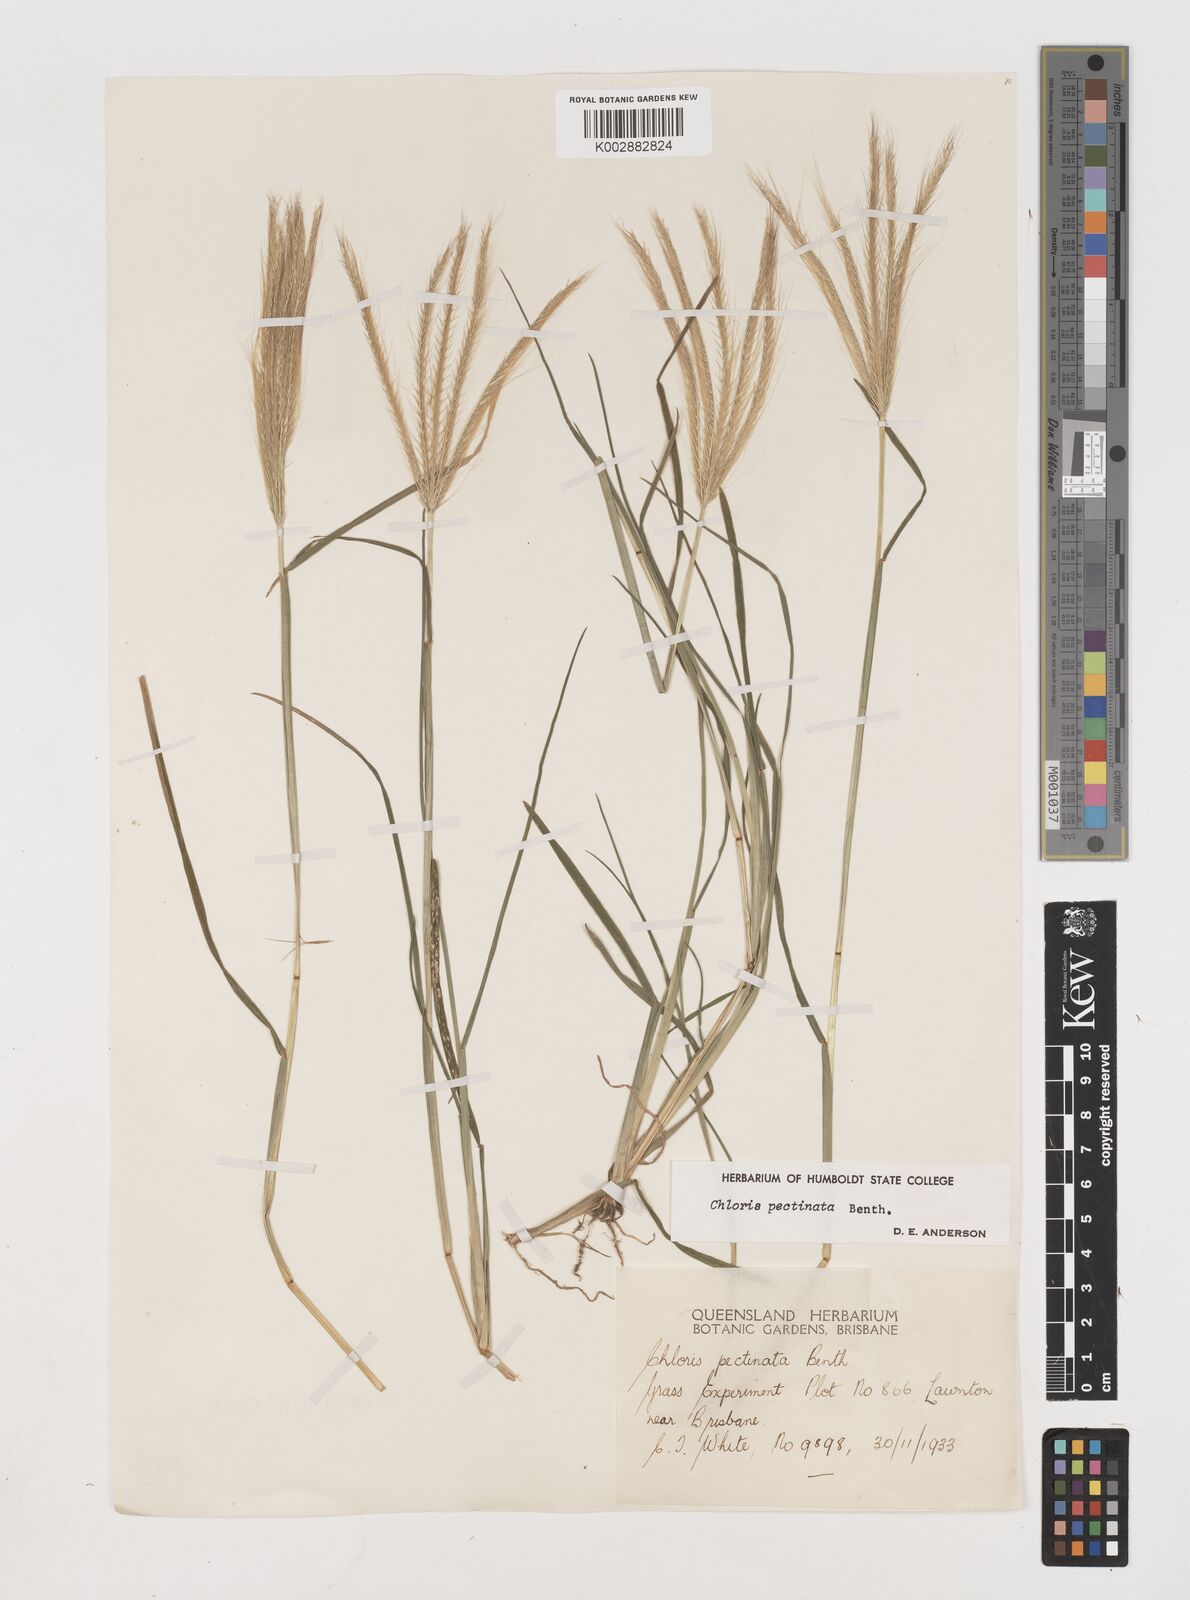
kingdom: Plantae
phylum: Tracheophyta
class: Liliopsida
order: Poales
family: Poaceae
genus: Chloris
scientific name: Chloris pectinata
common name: Comb windmill grass
